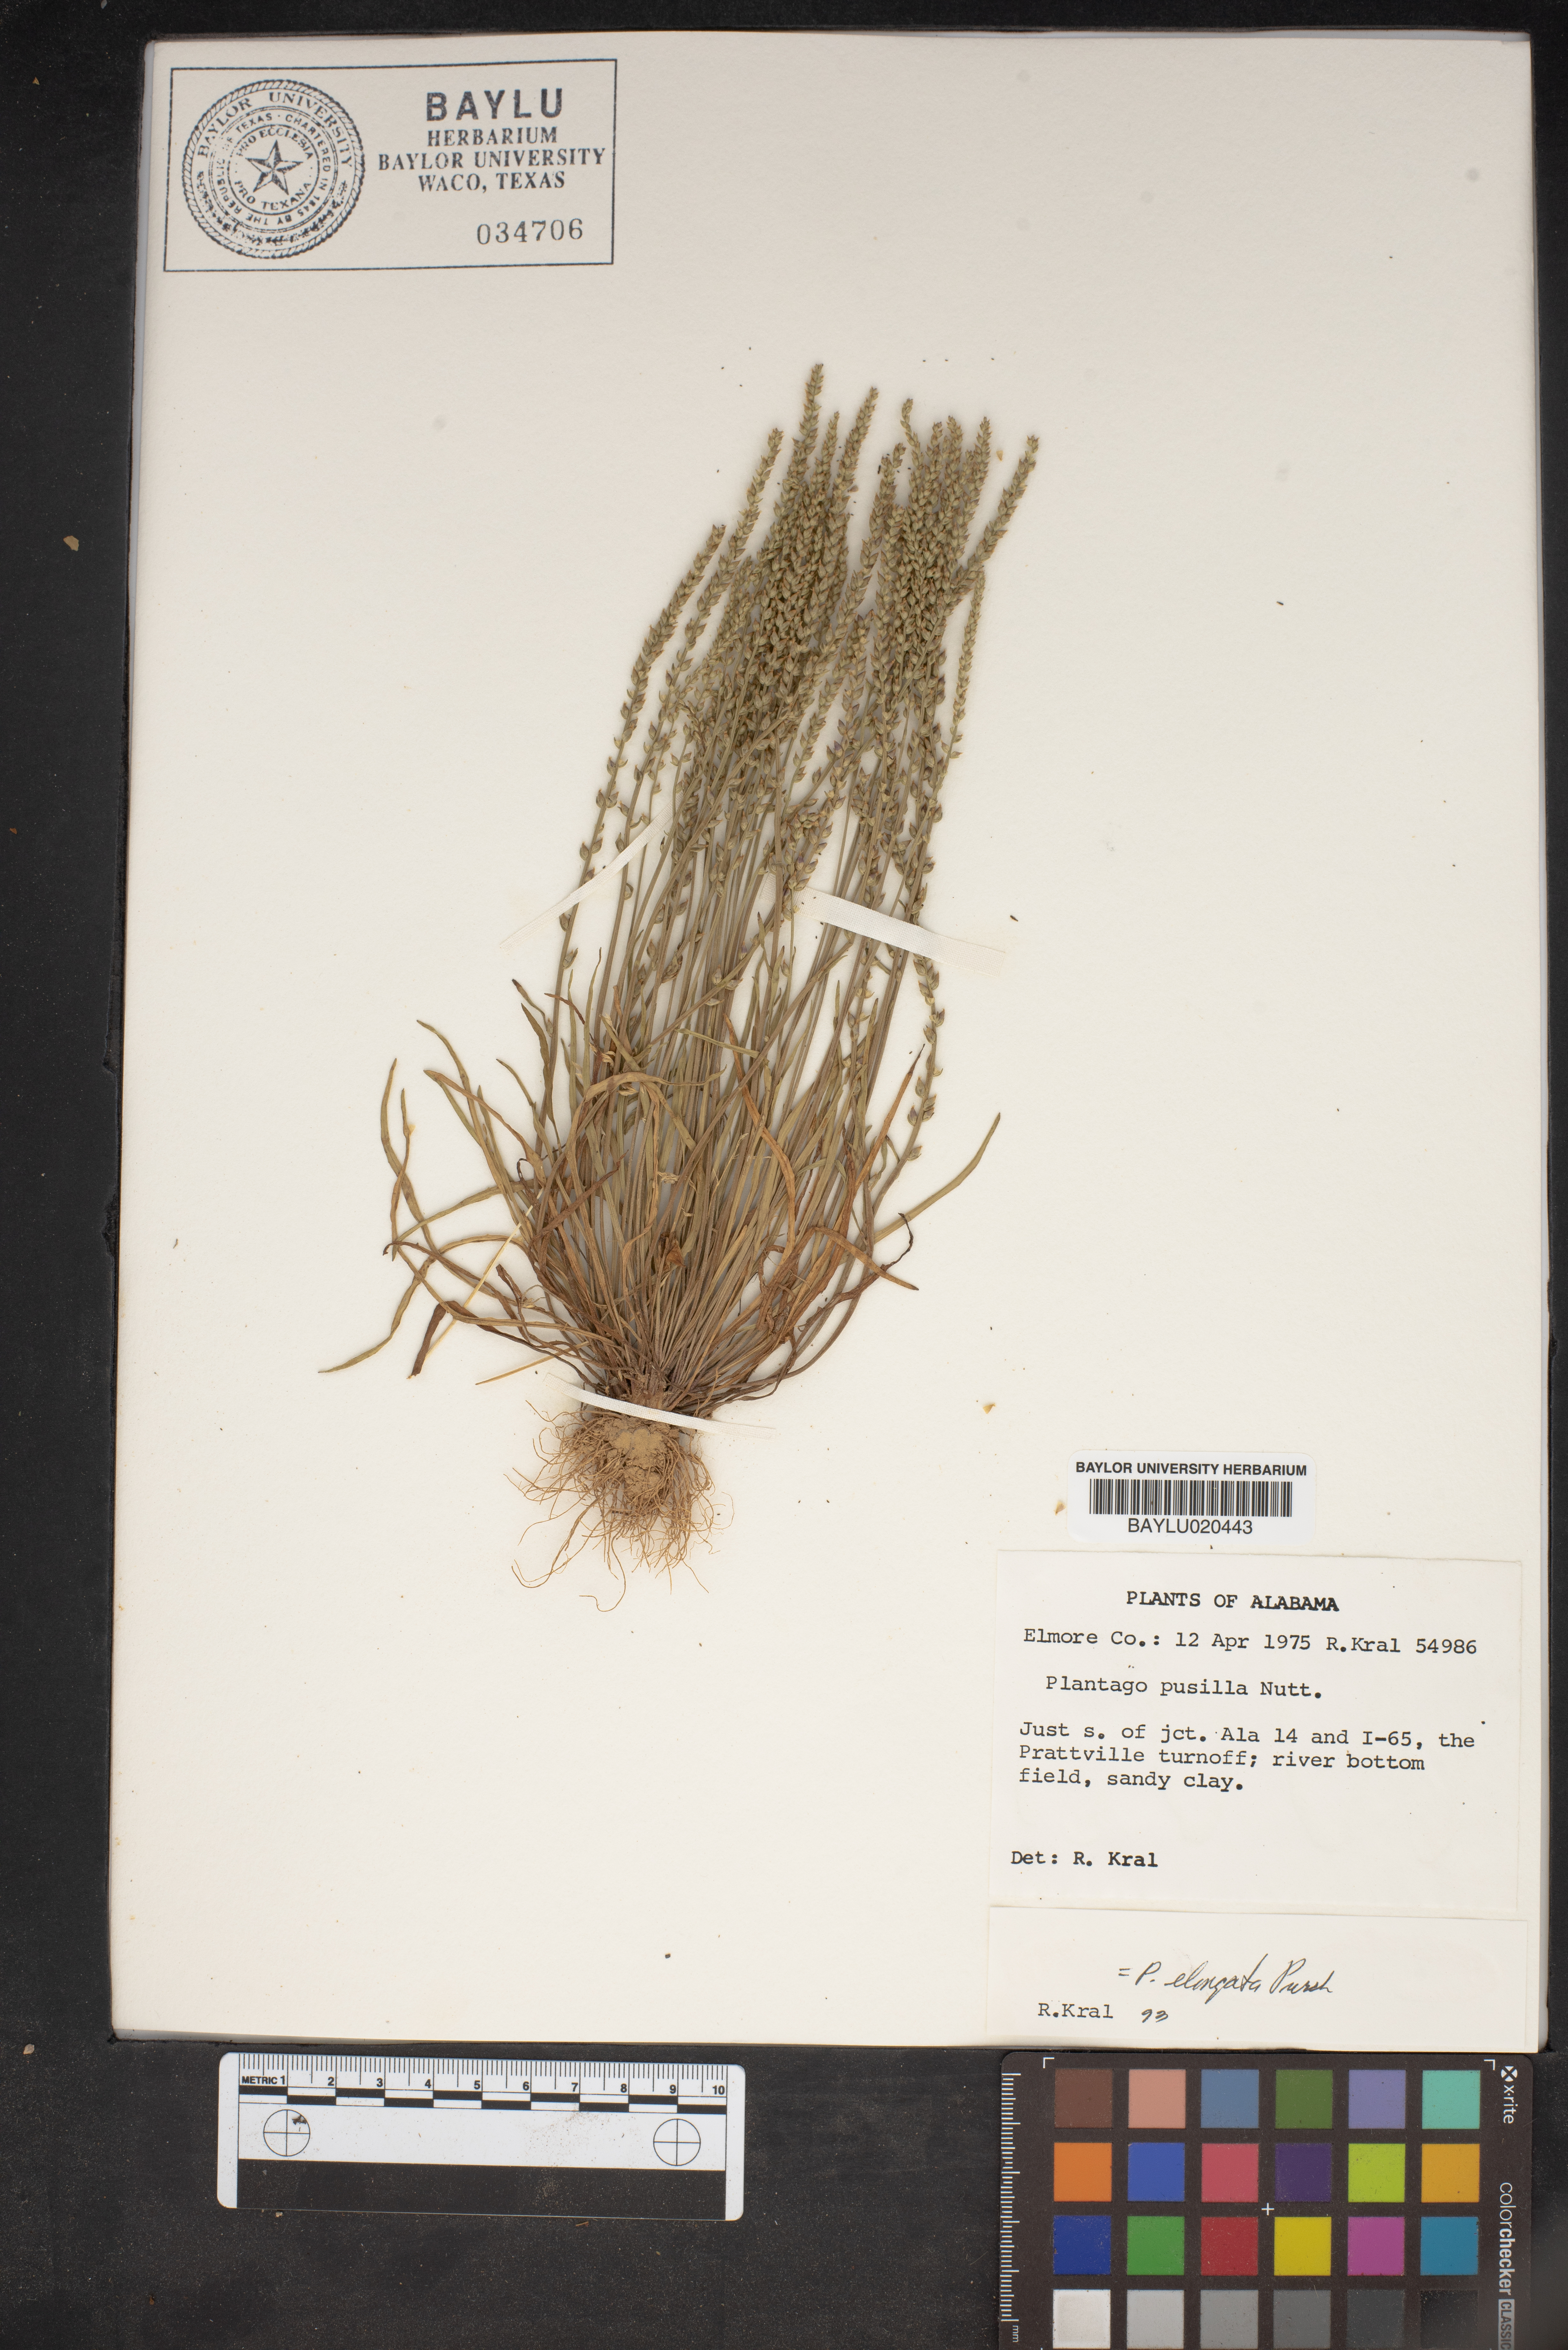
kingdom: Plantae
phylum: Tracheophyta
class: Magnoliopsida
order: Lamiales
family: Plantaginaceae
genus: Plantago
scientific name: Plantago pusilla
